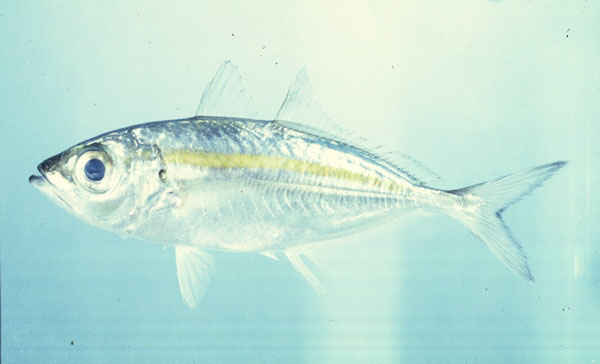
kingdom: Animalia
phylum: Chordata
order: Perciformes
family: Carangidae
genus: Selar
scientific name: Selar boops
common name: Oxeye scad
